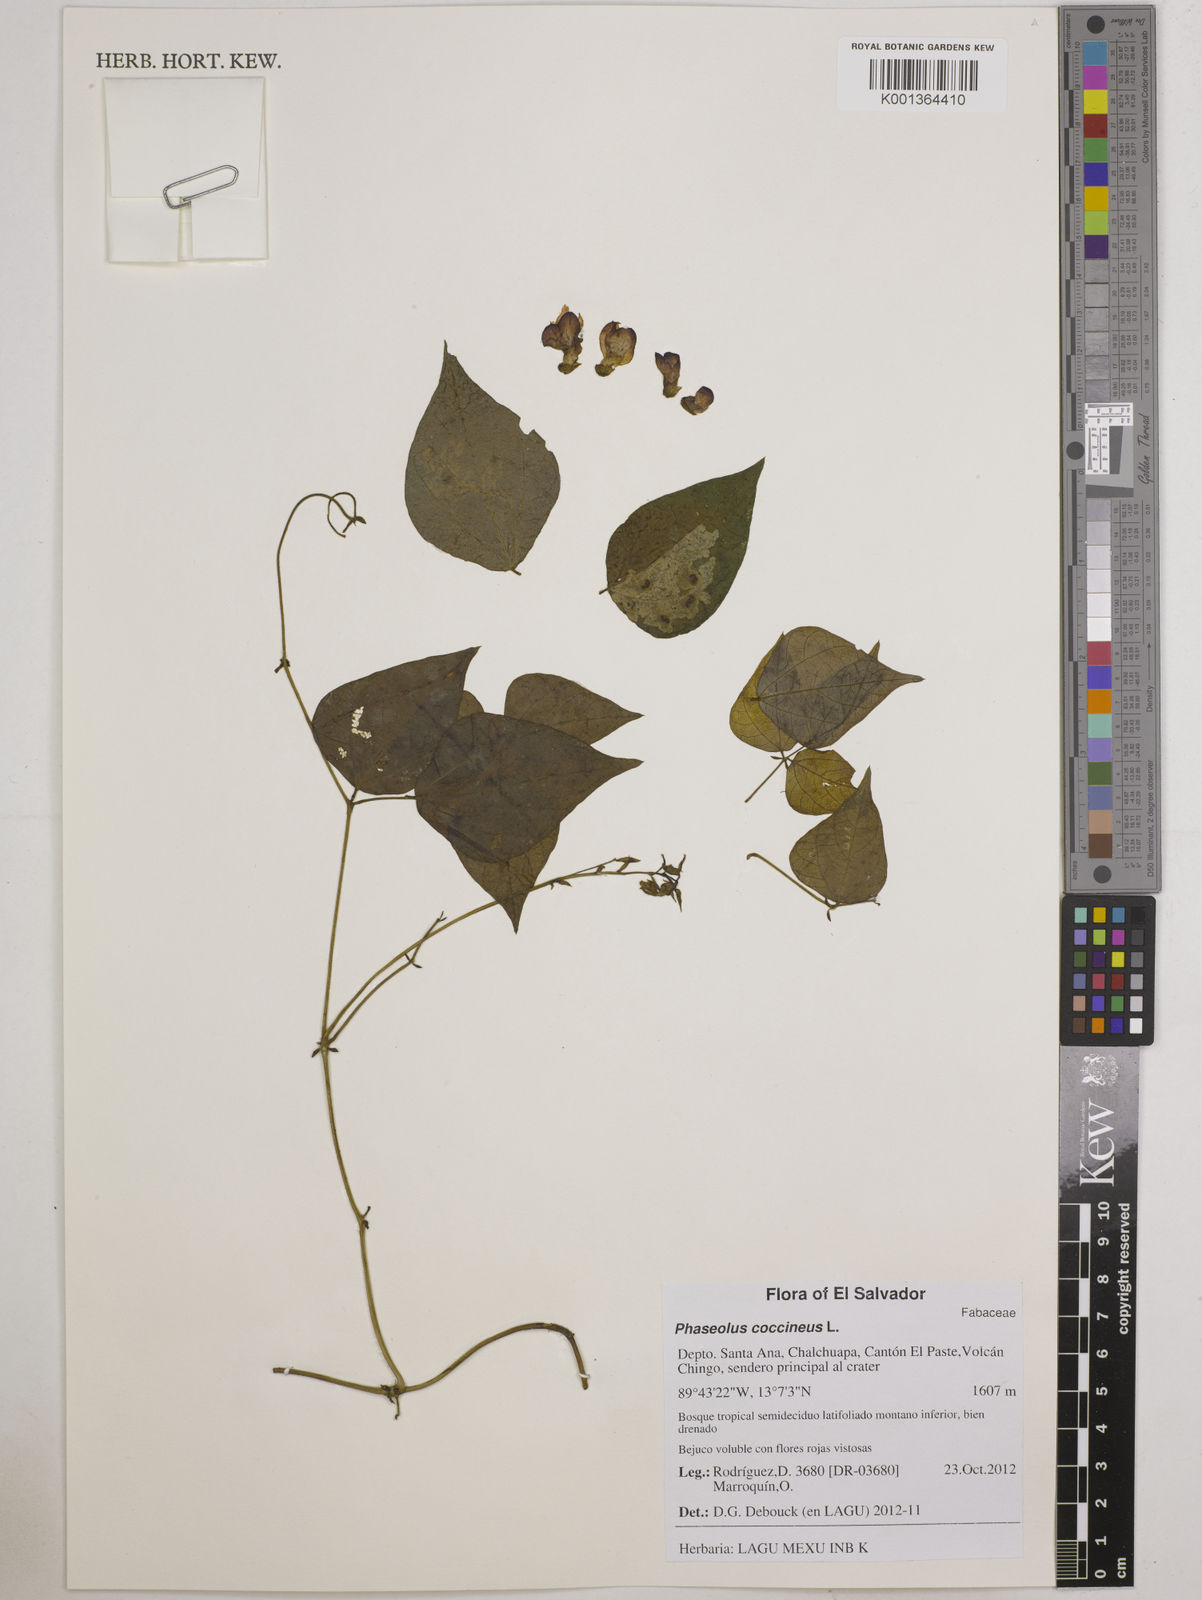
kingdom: Plantae
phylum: Tracheophyta
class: Magnoliopsida
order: Fabales
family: Fabaceae
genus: Phaseolus
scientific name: Phaseolus coccineus
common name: Runner bean
